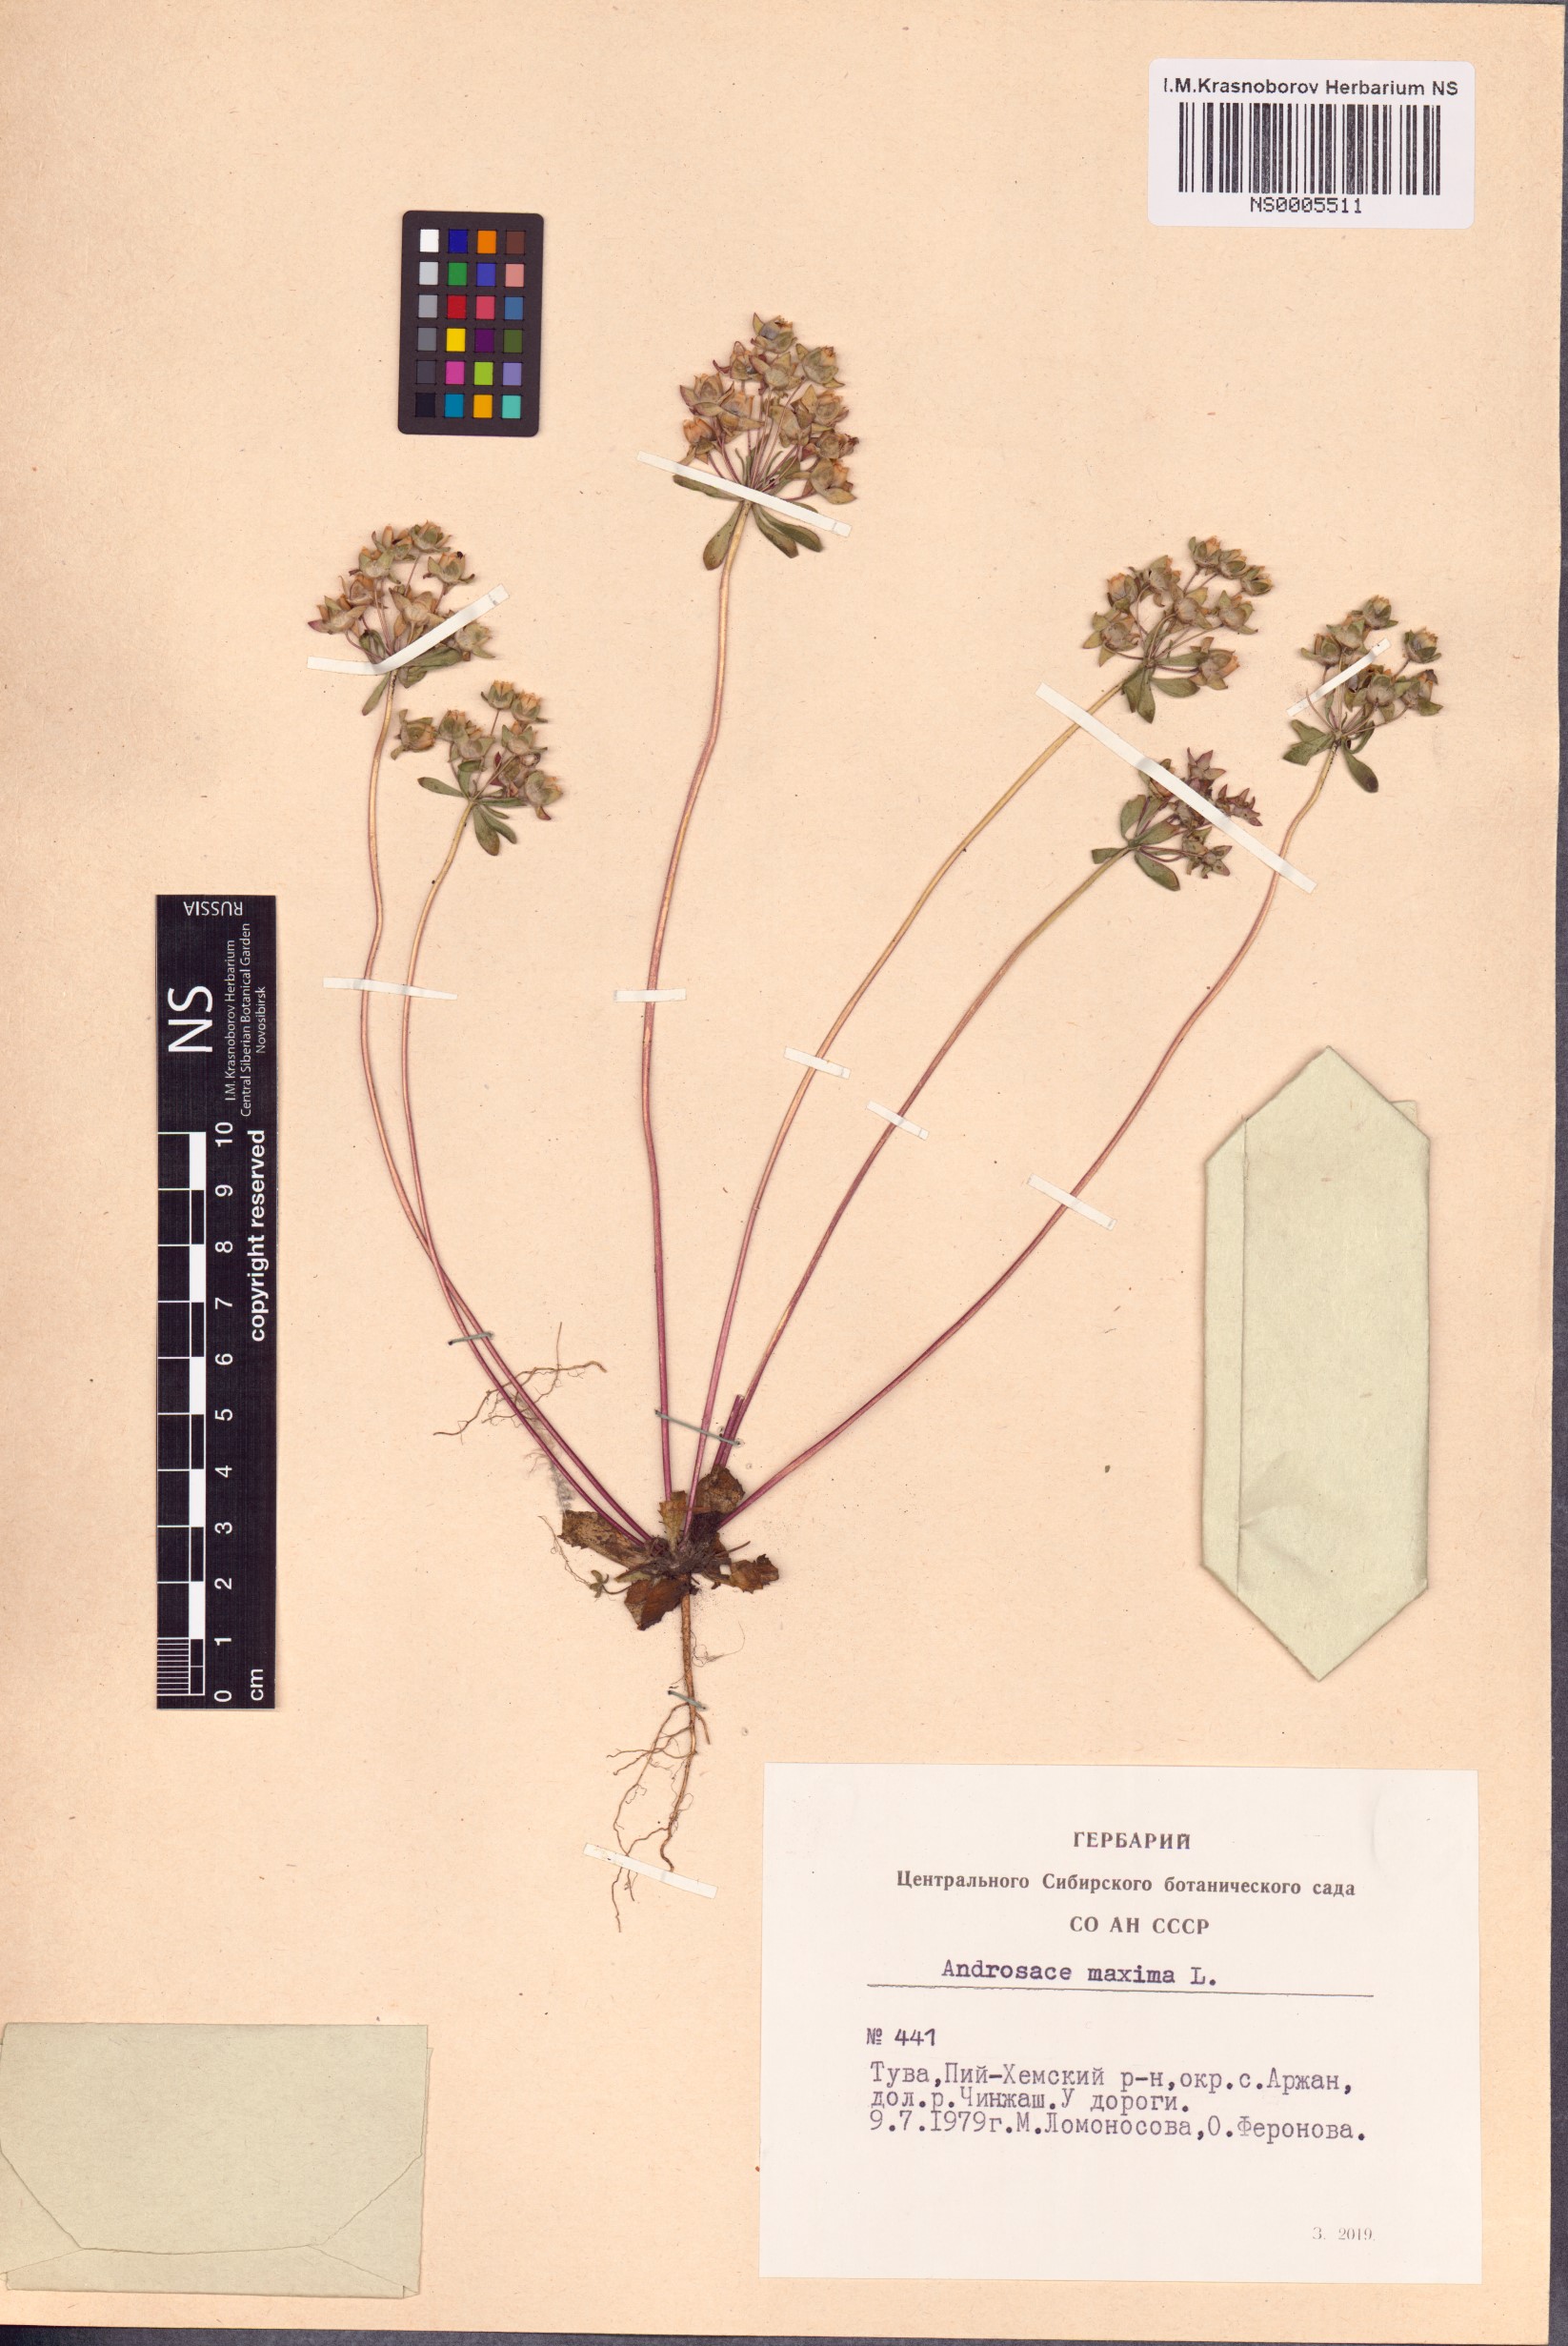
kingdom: Plantae
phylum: Tracheophyta
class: Magnoliopsida
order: Ericales
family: Primulaceae
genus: Androsace
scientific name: Androsace maxima
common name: Annual androsace
